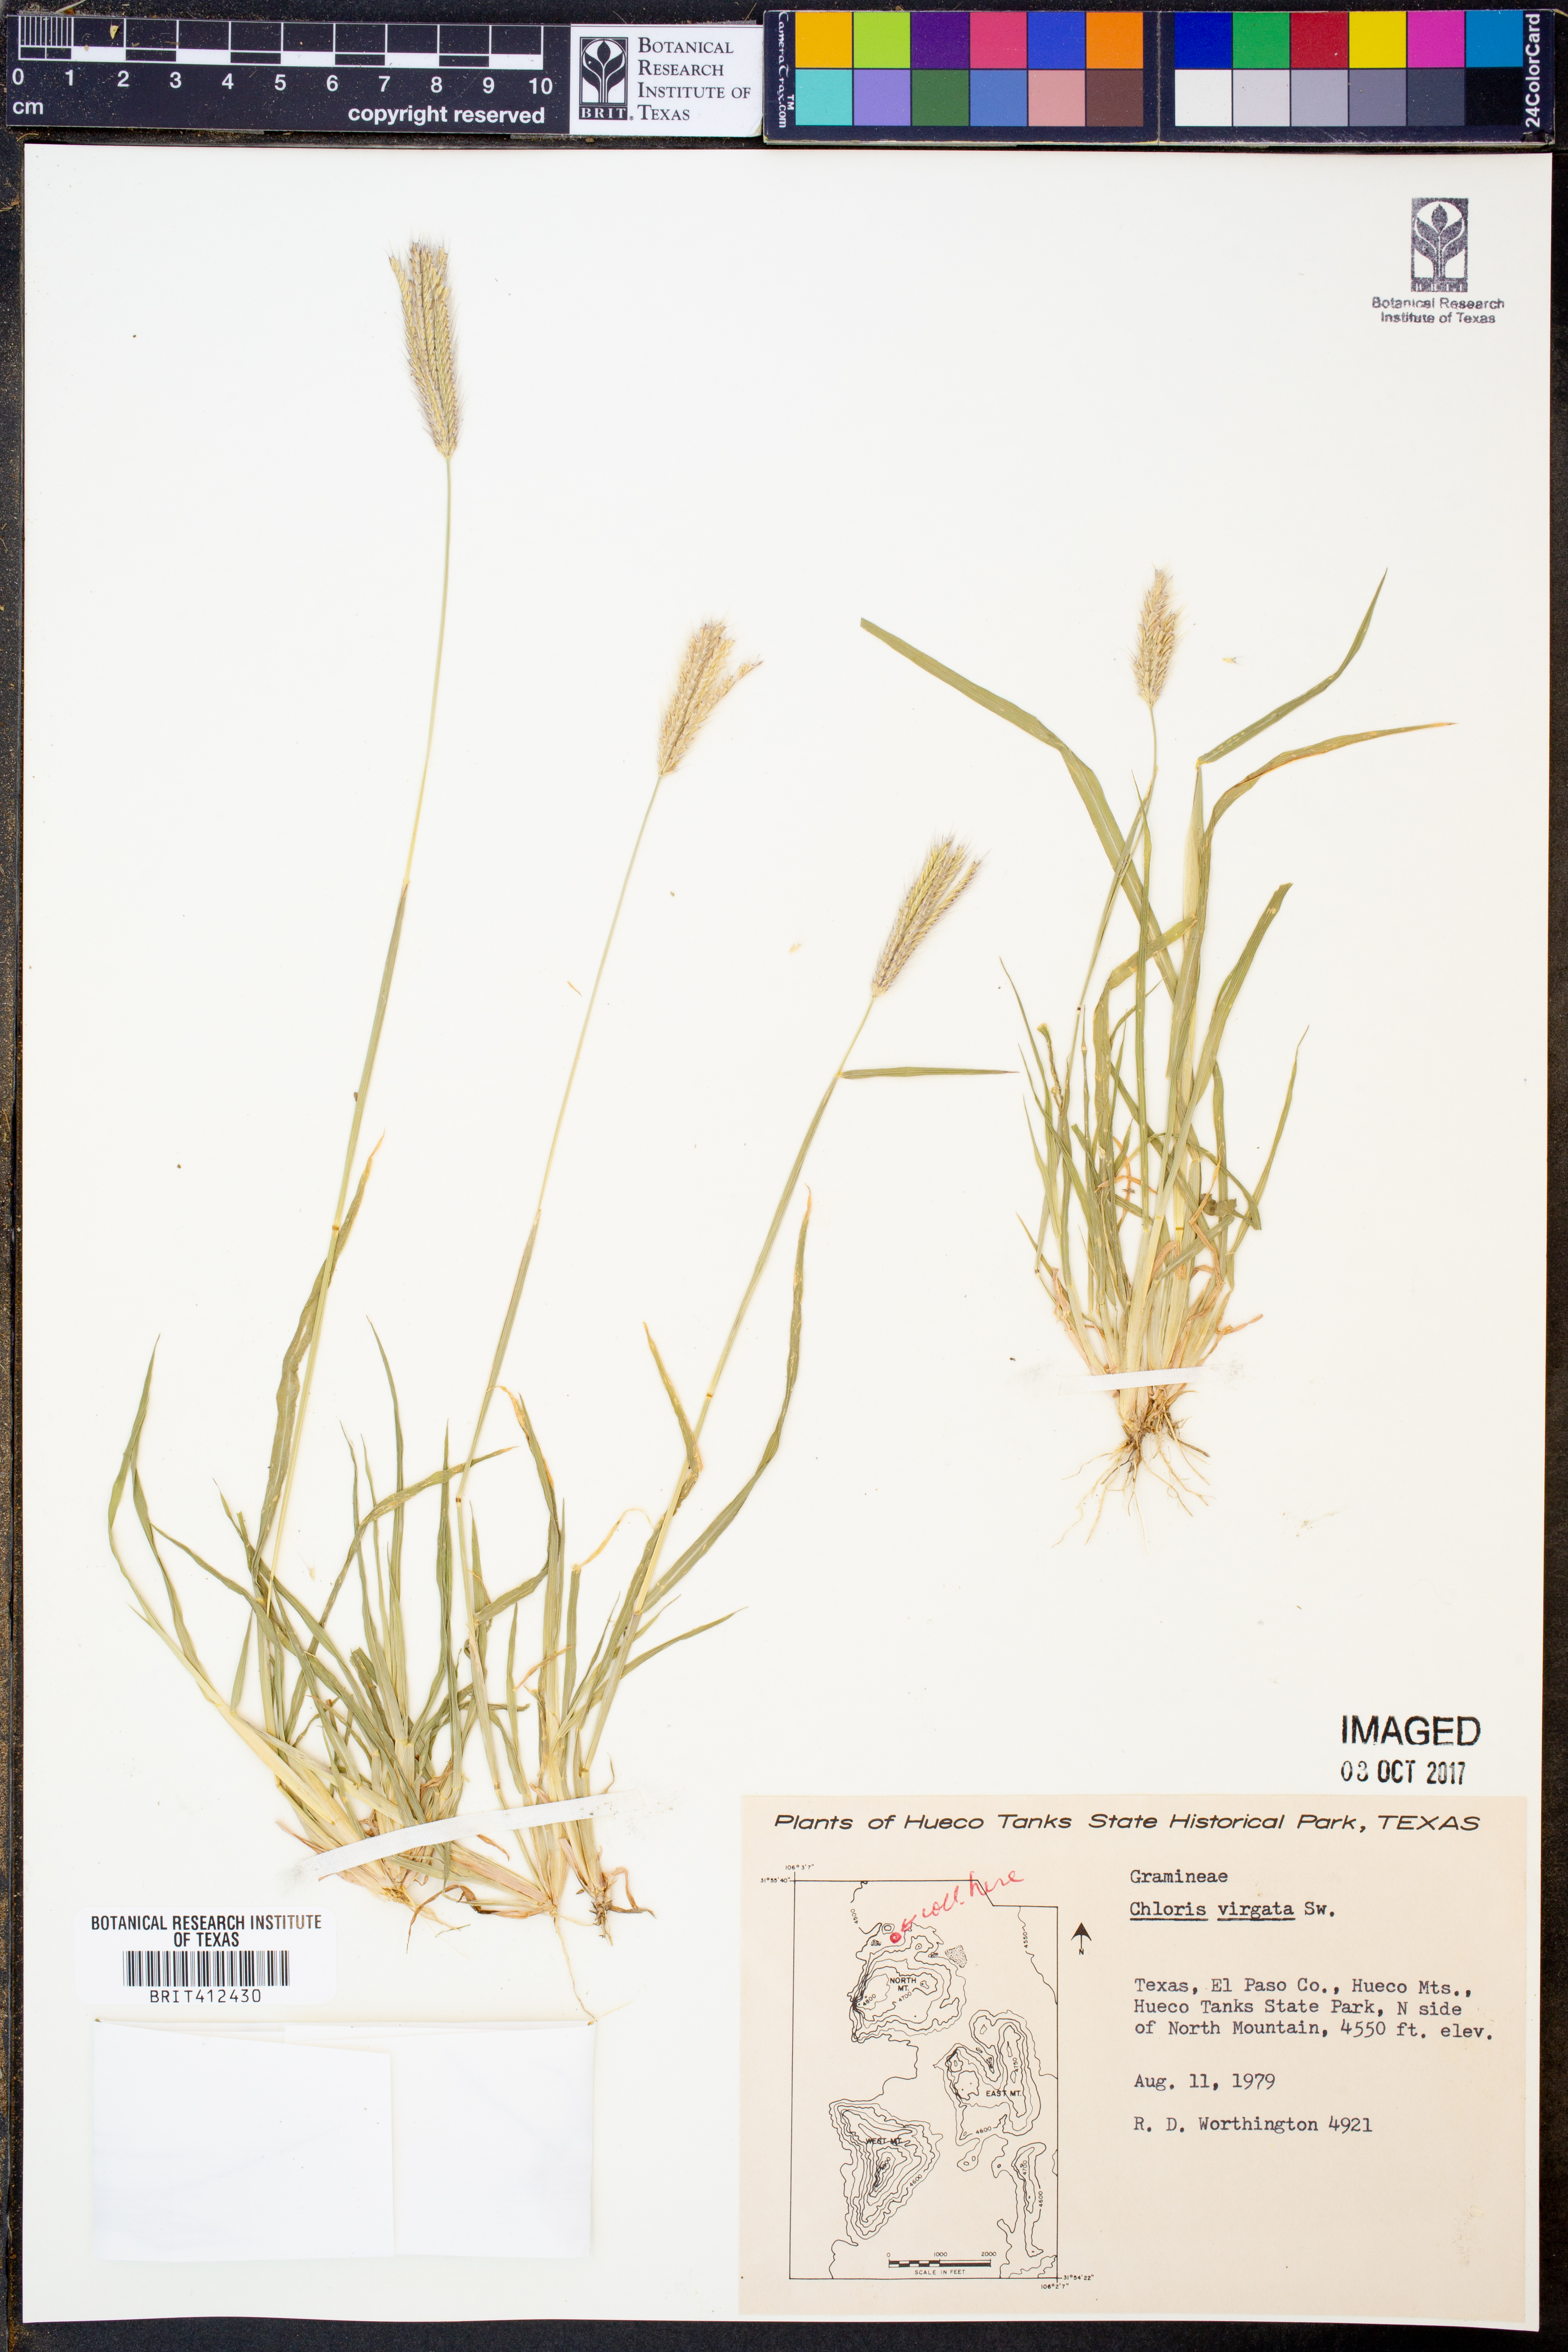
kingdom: Plantae
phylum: Tracheophyta
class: Liliopsida
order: Poales
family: Poaceae
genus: Chloris
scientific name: Chloris virgata
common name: Feathery rhodes-grass
